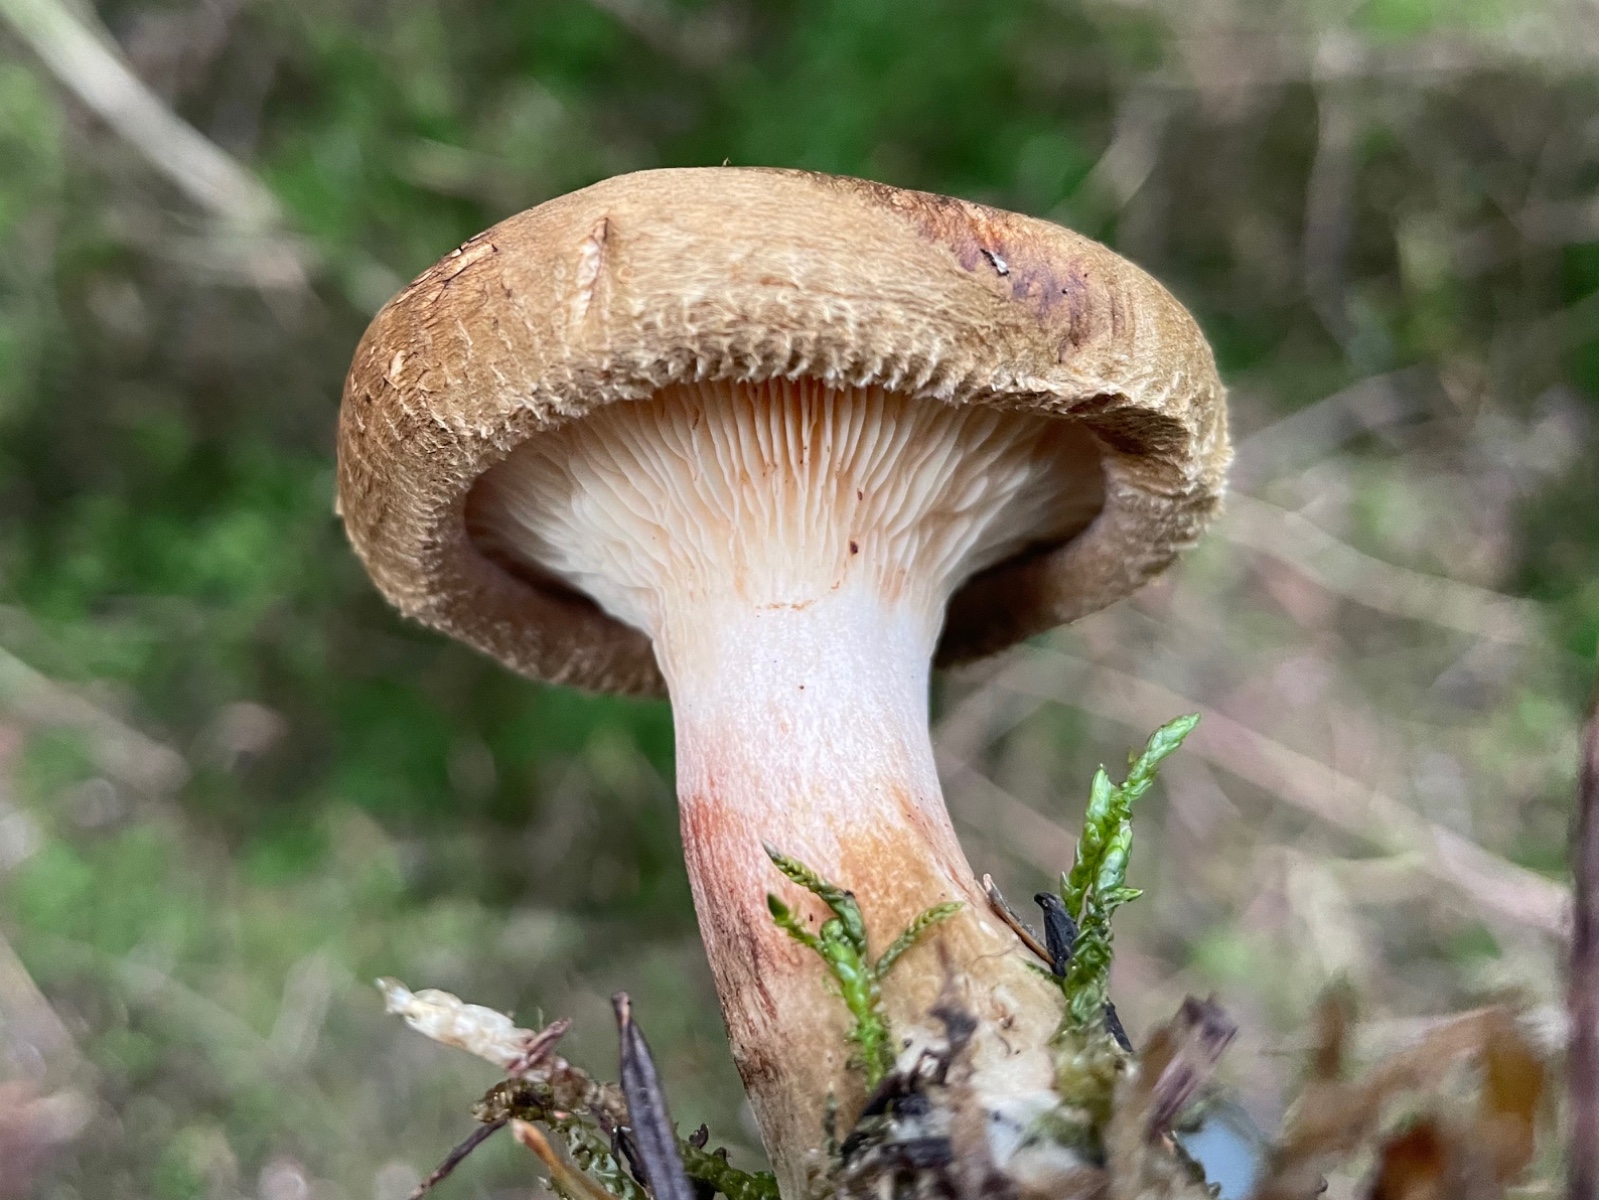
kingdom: Fungi
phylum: Basidiomycota
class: Agaricomycetes
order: Boletales
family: Paxillaceae
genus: Paxillus
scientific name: Paxillus involutus
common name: almindelig netbladhat
